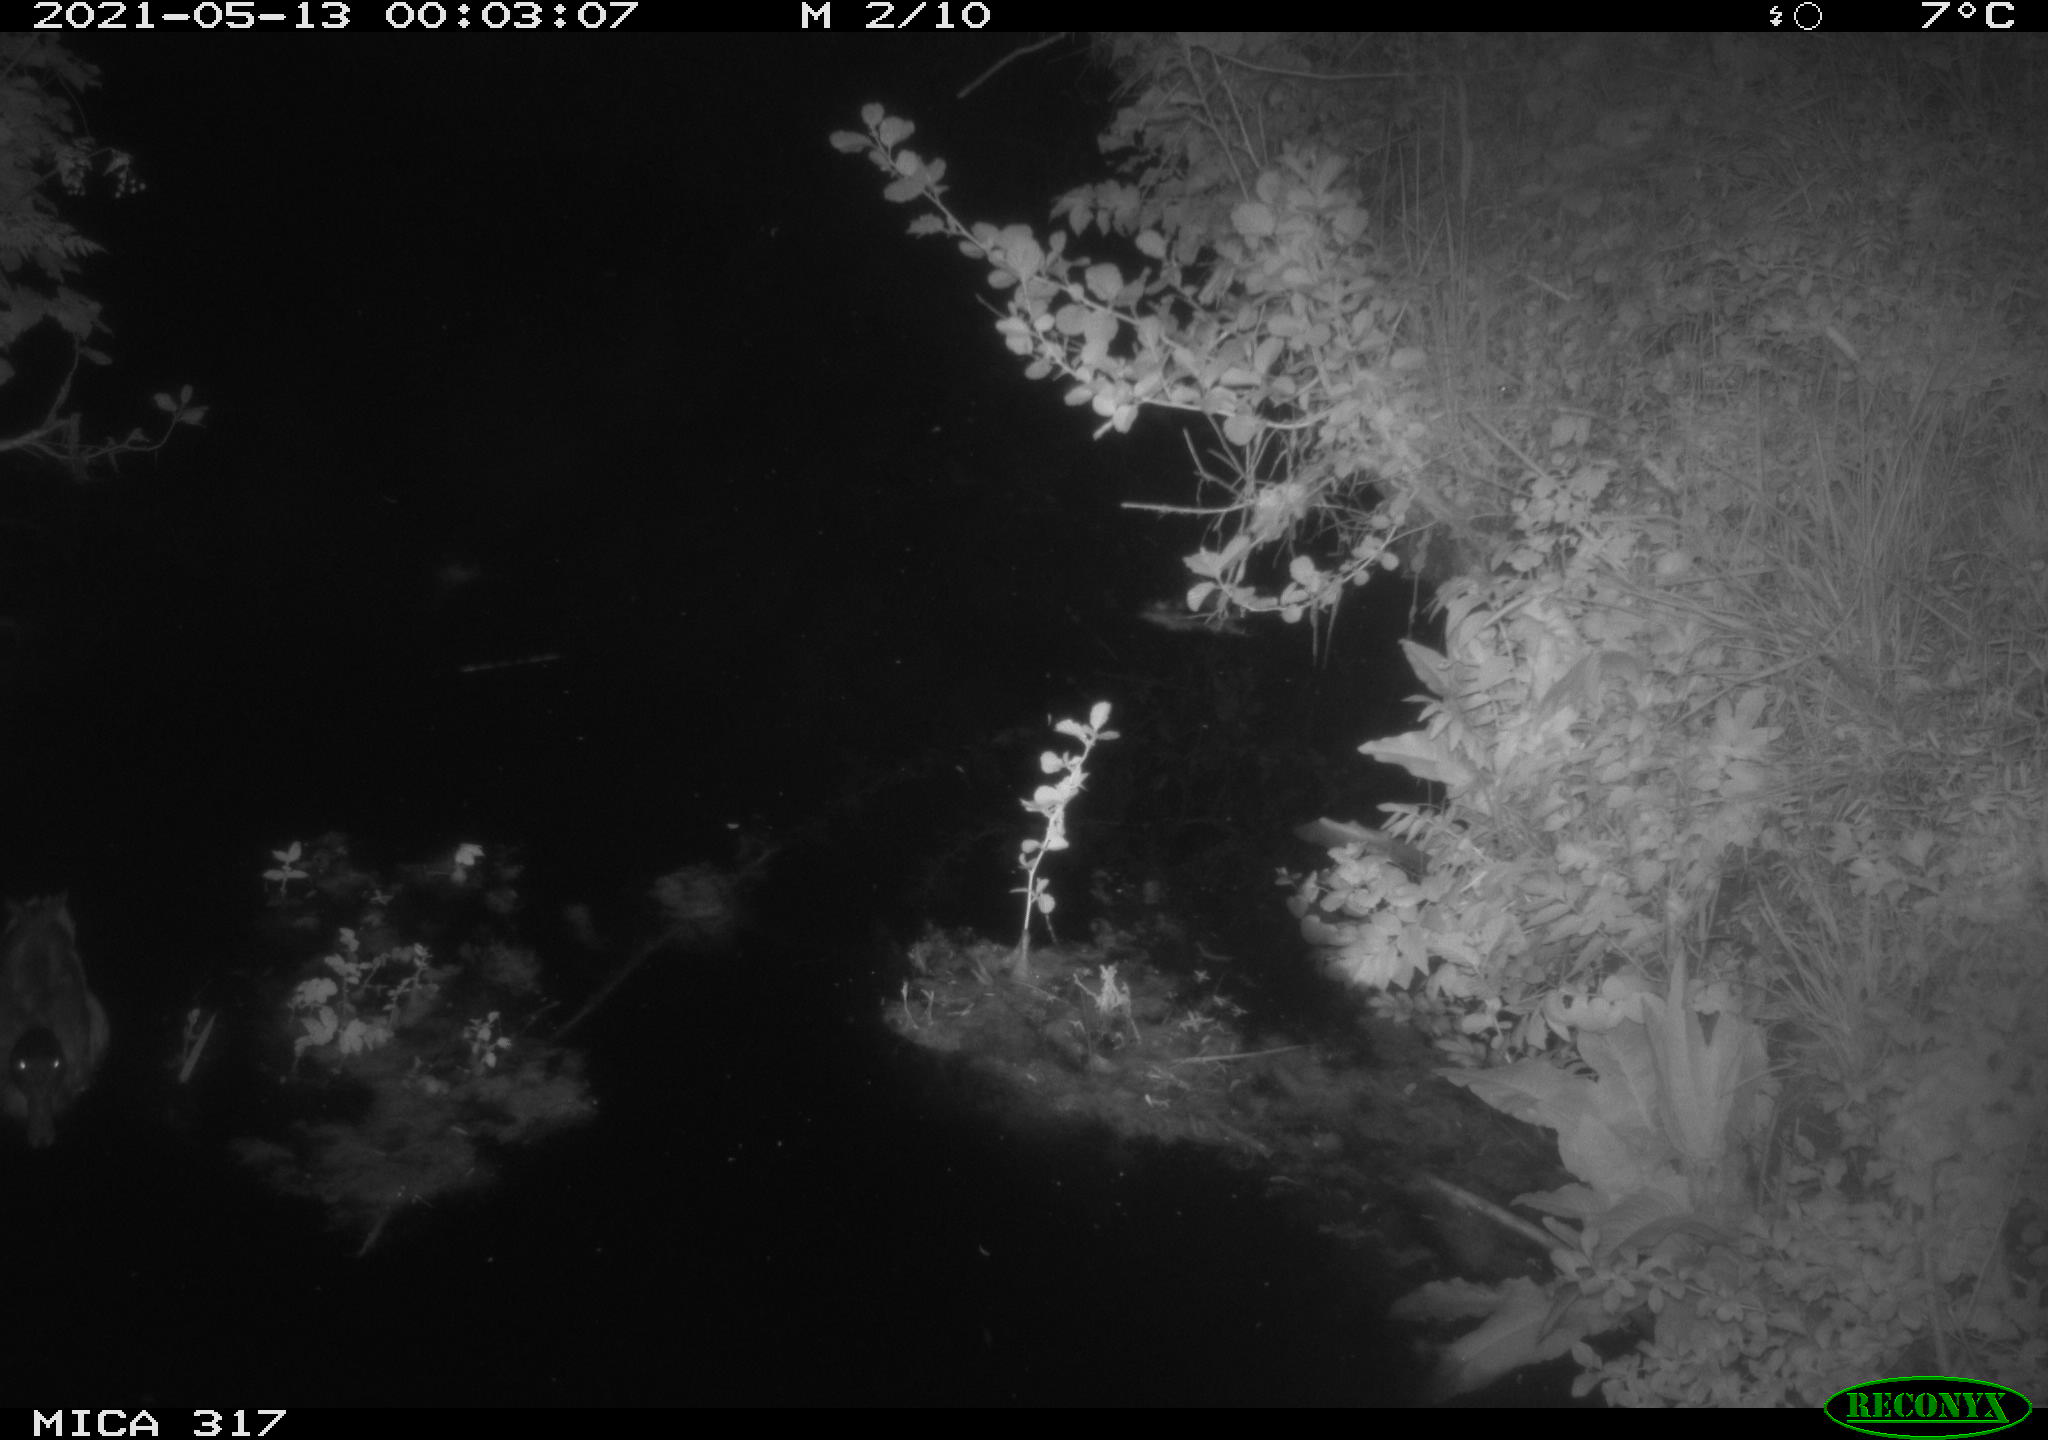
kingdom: Animalia
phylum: Chordata
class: Aves
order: Anseriformes
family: Anatidae
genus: Anas
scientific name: Anas
